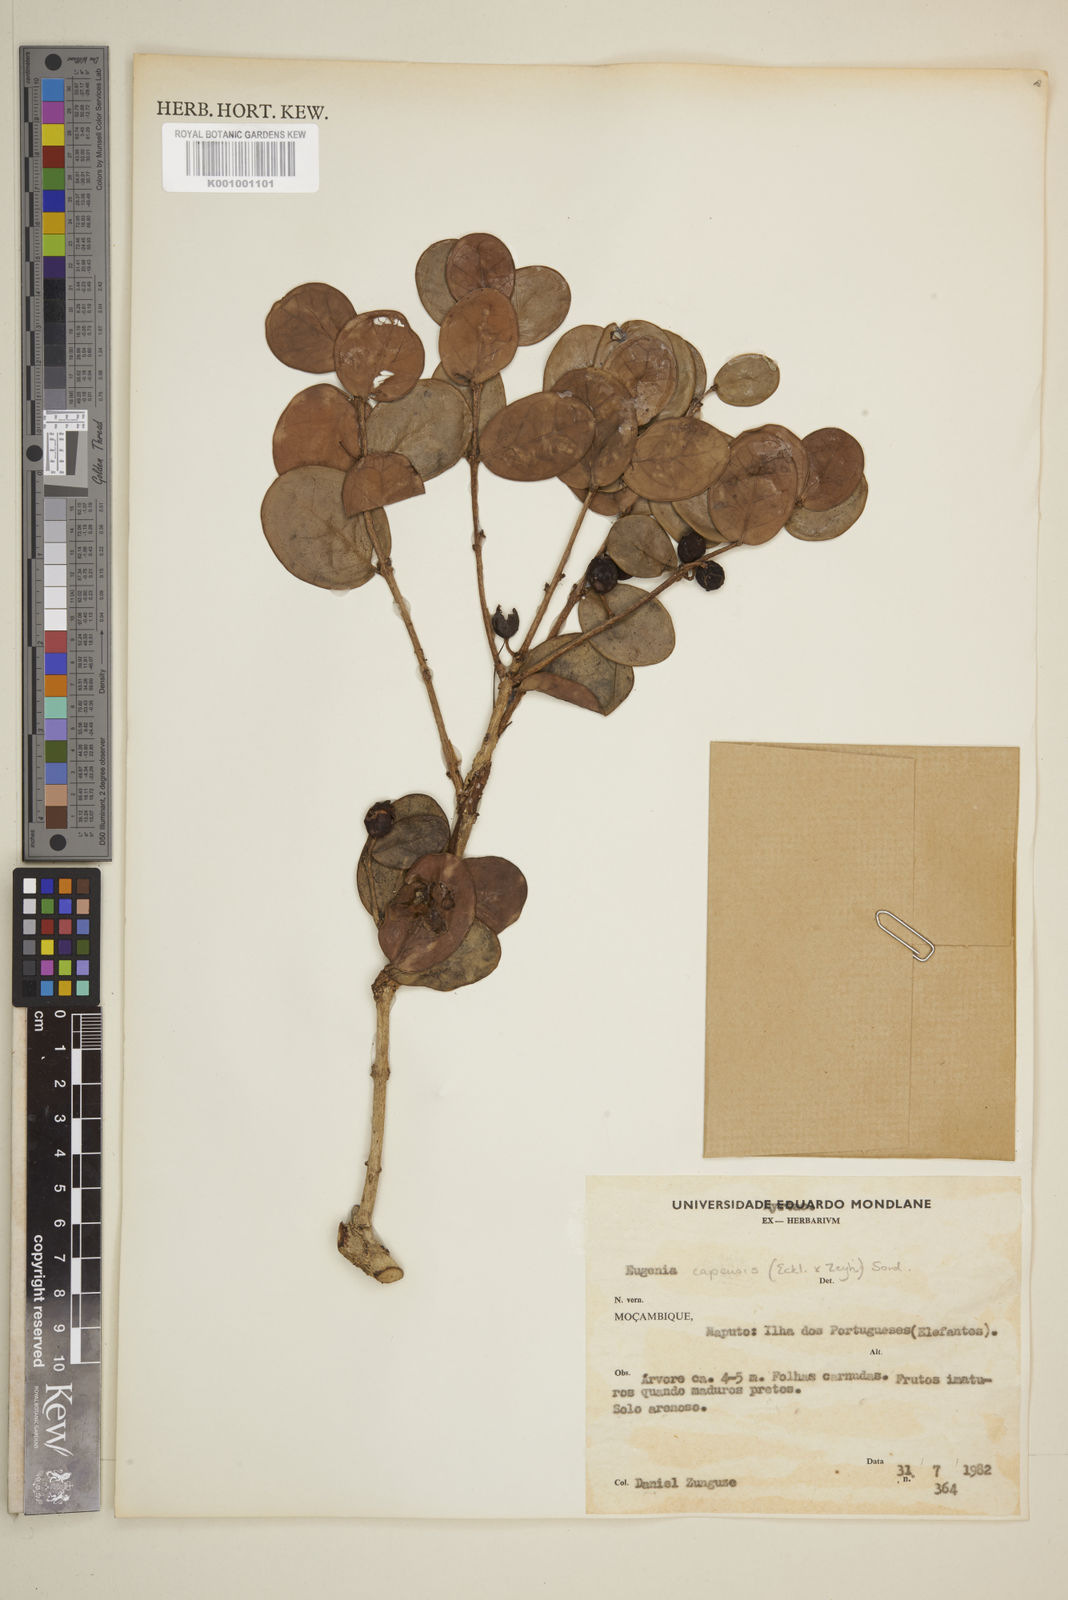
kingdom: Plantae
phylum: Tracheophyta
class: Magnoliopsida
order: Myrtales
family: Myrtaceae
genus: Eugenia
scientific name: Eugenia capensis
